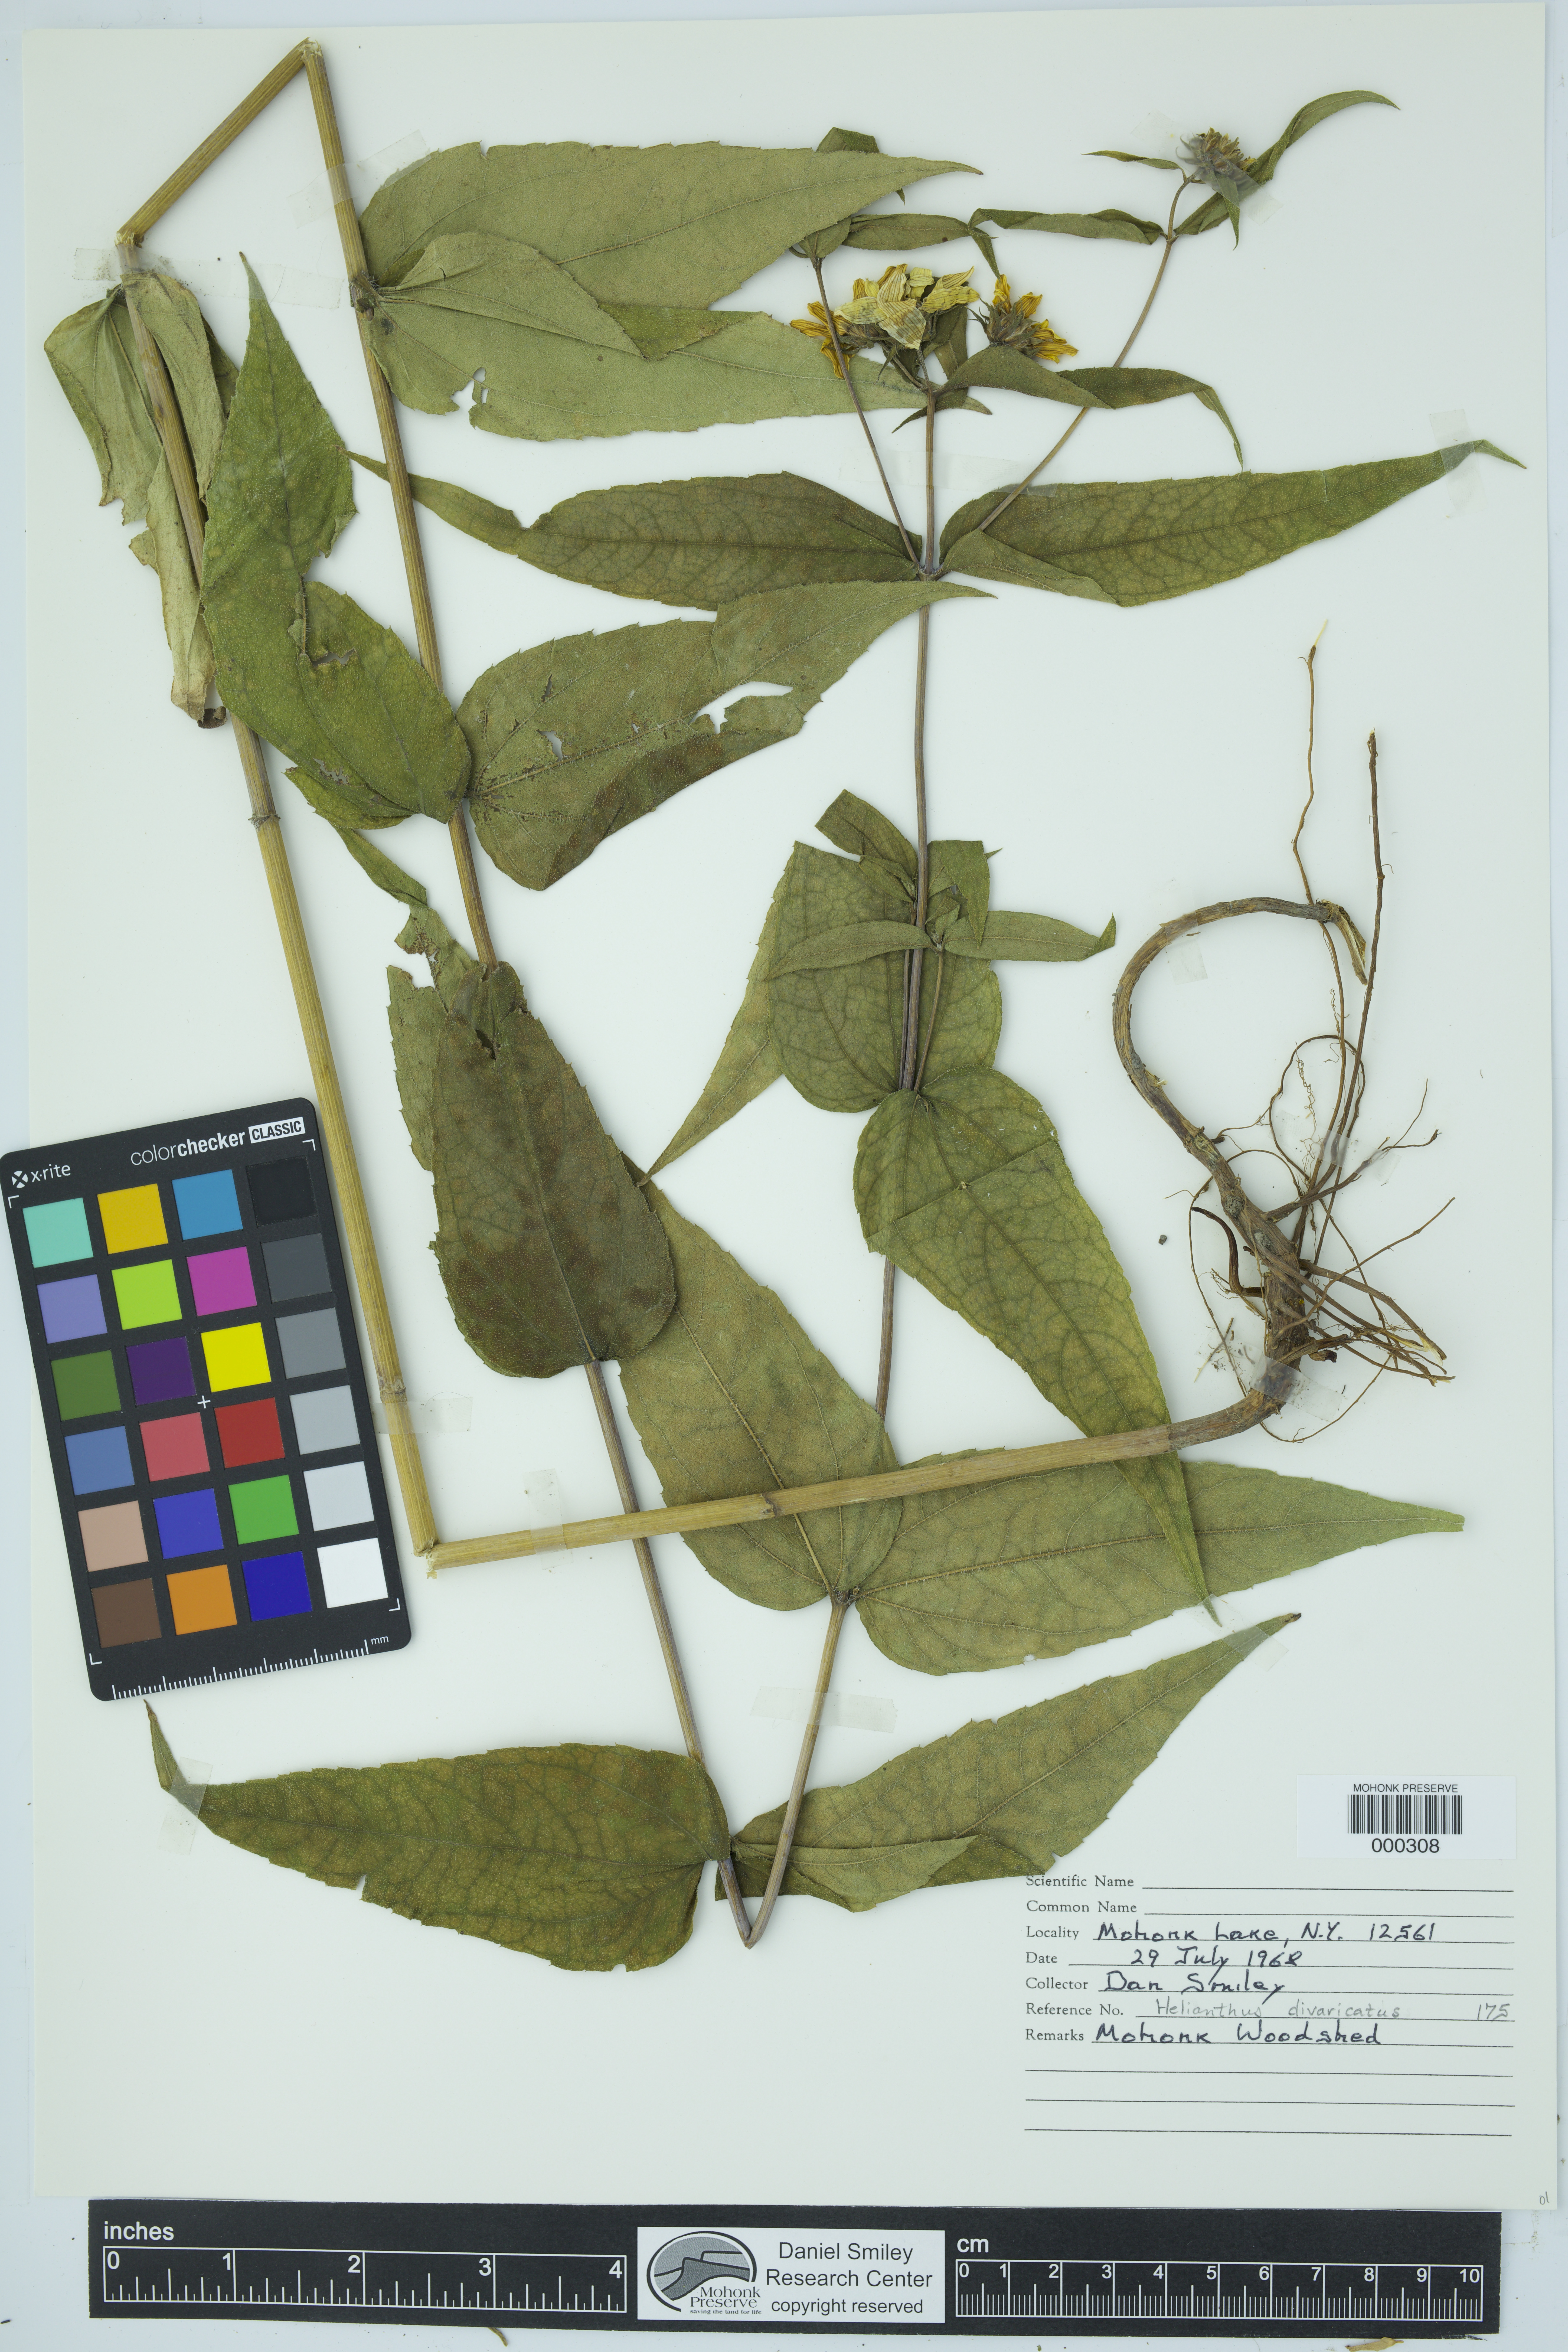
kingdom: Plantae
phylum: Tracheophyta
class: Magnoliopsida
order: Asterales
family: Asteraceae
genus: Helianthus
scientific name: Helianthus divaricatus
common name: Divergent sunflower
